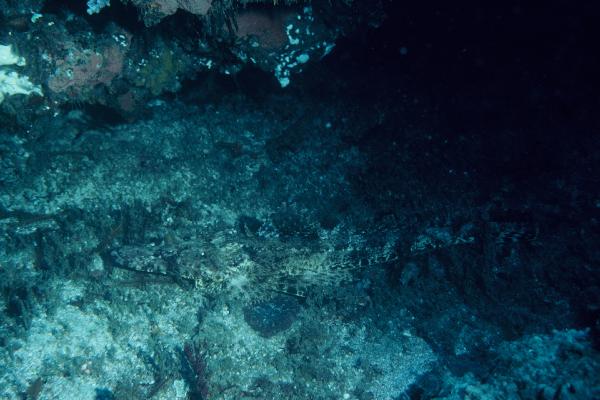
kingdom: Animalia
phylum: Chordata
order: Scorpaeniformes
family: Platycephalidae
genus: Cociella
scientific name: Cociella crocodilus
